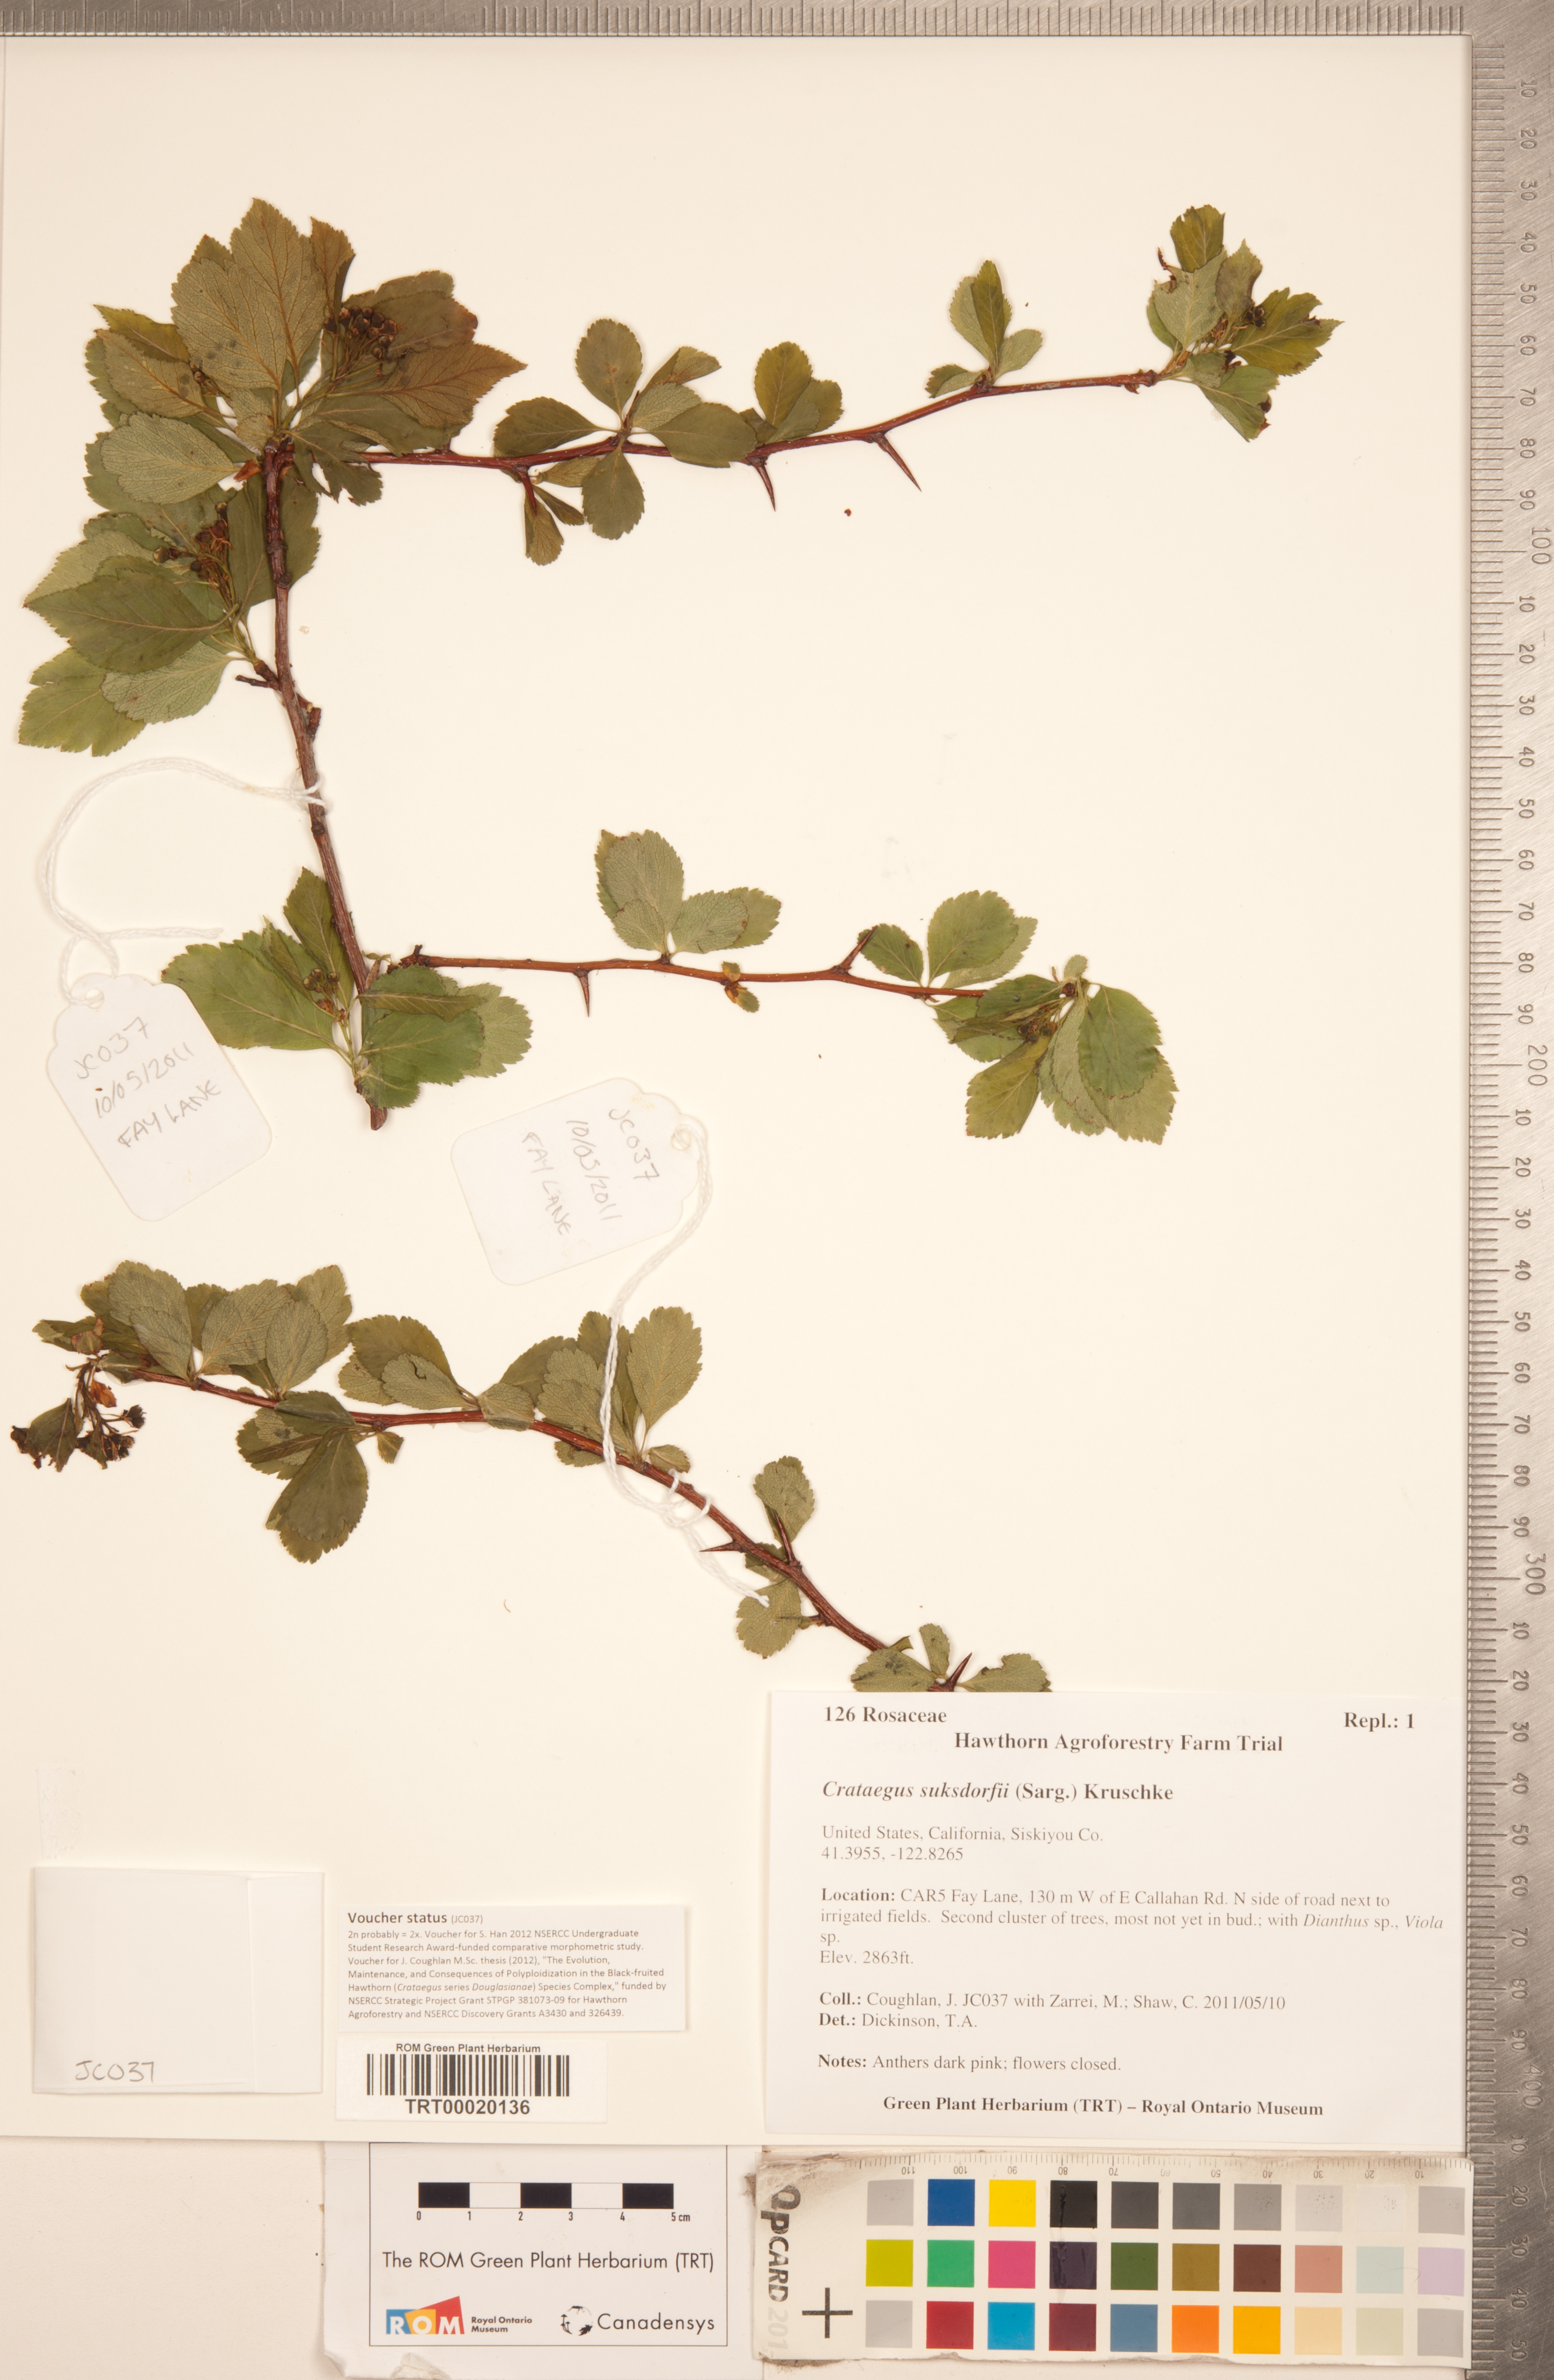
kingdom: Plantae
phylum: Tracheophyta
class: Magnoliopsida
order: Rosales
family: Rosaceae
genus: Crataegus
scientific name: Crataegus gaylussacia
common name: Huckleberry hawthorn
